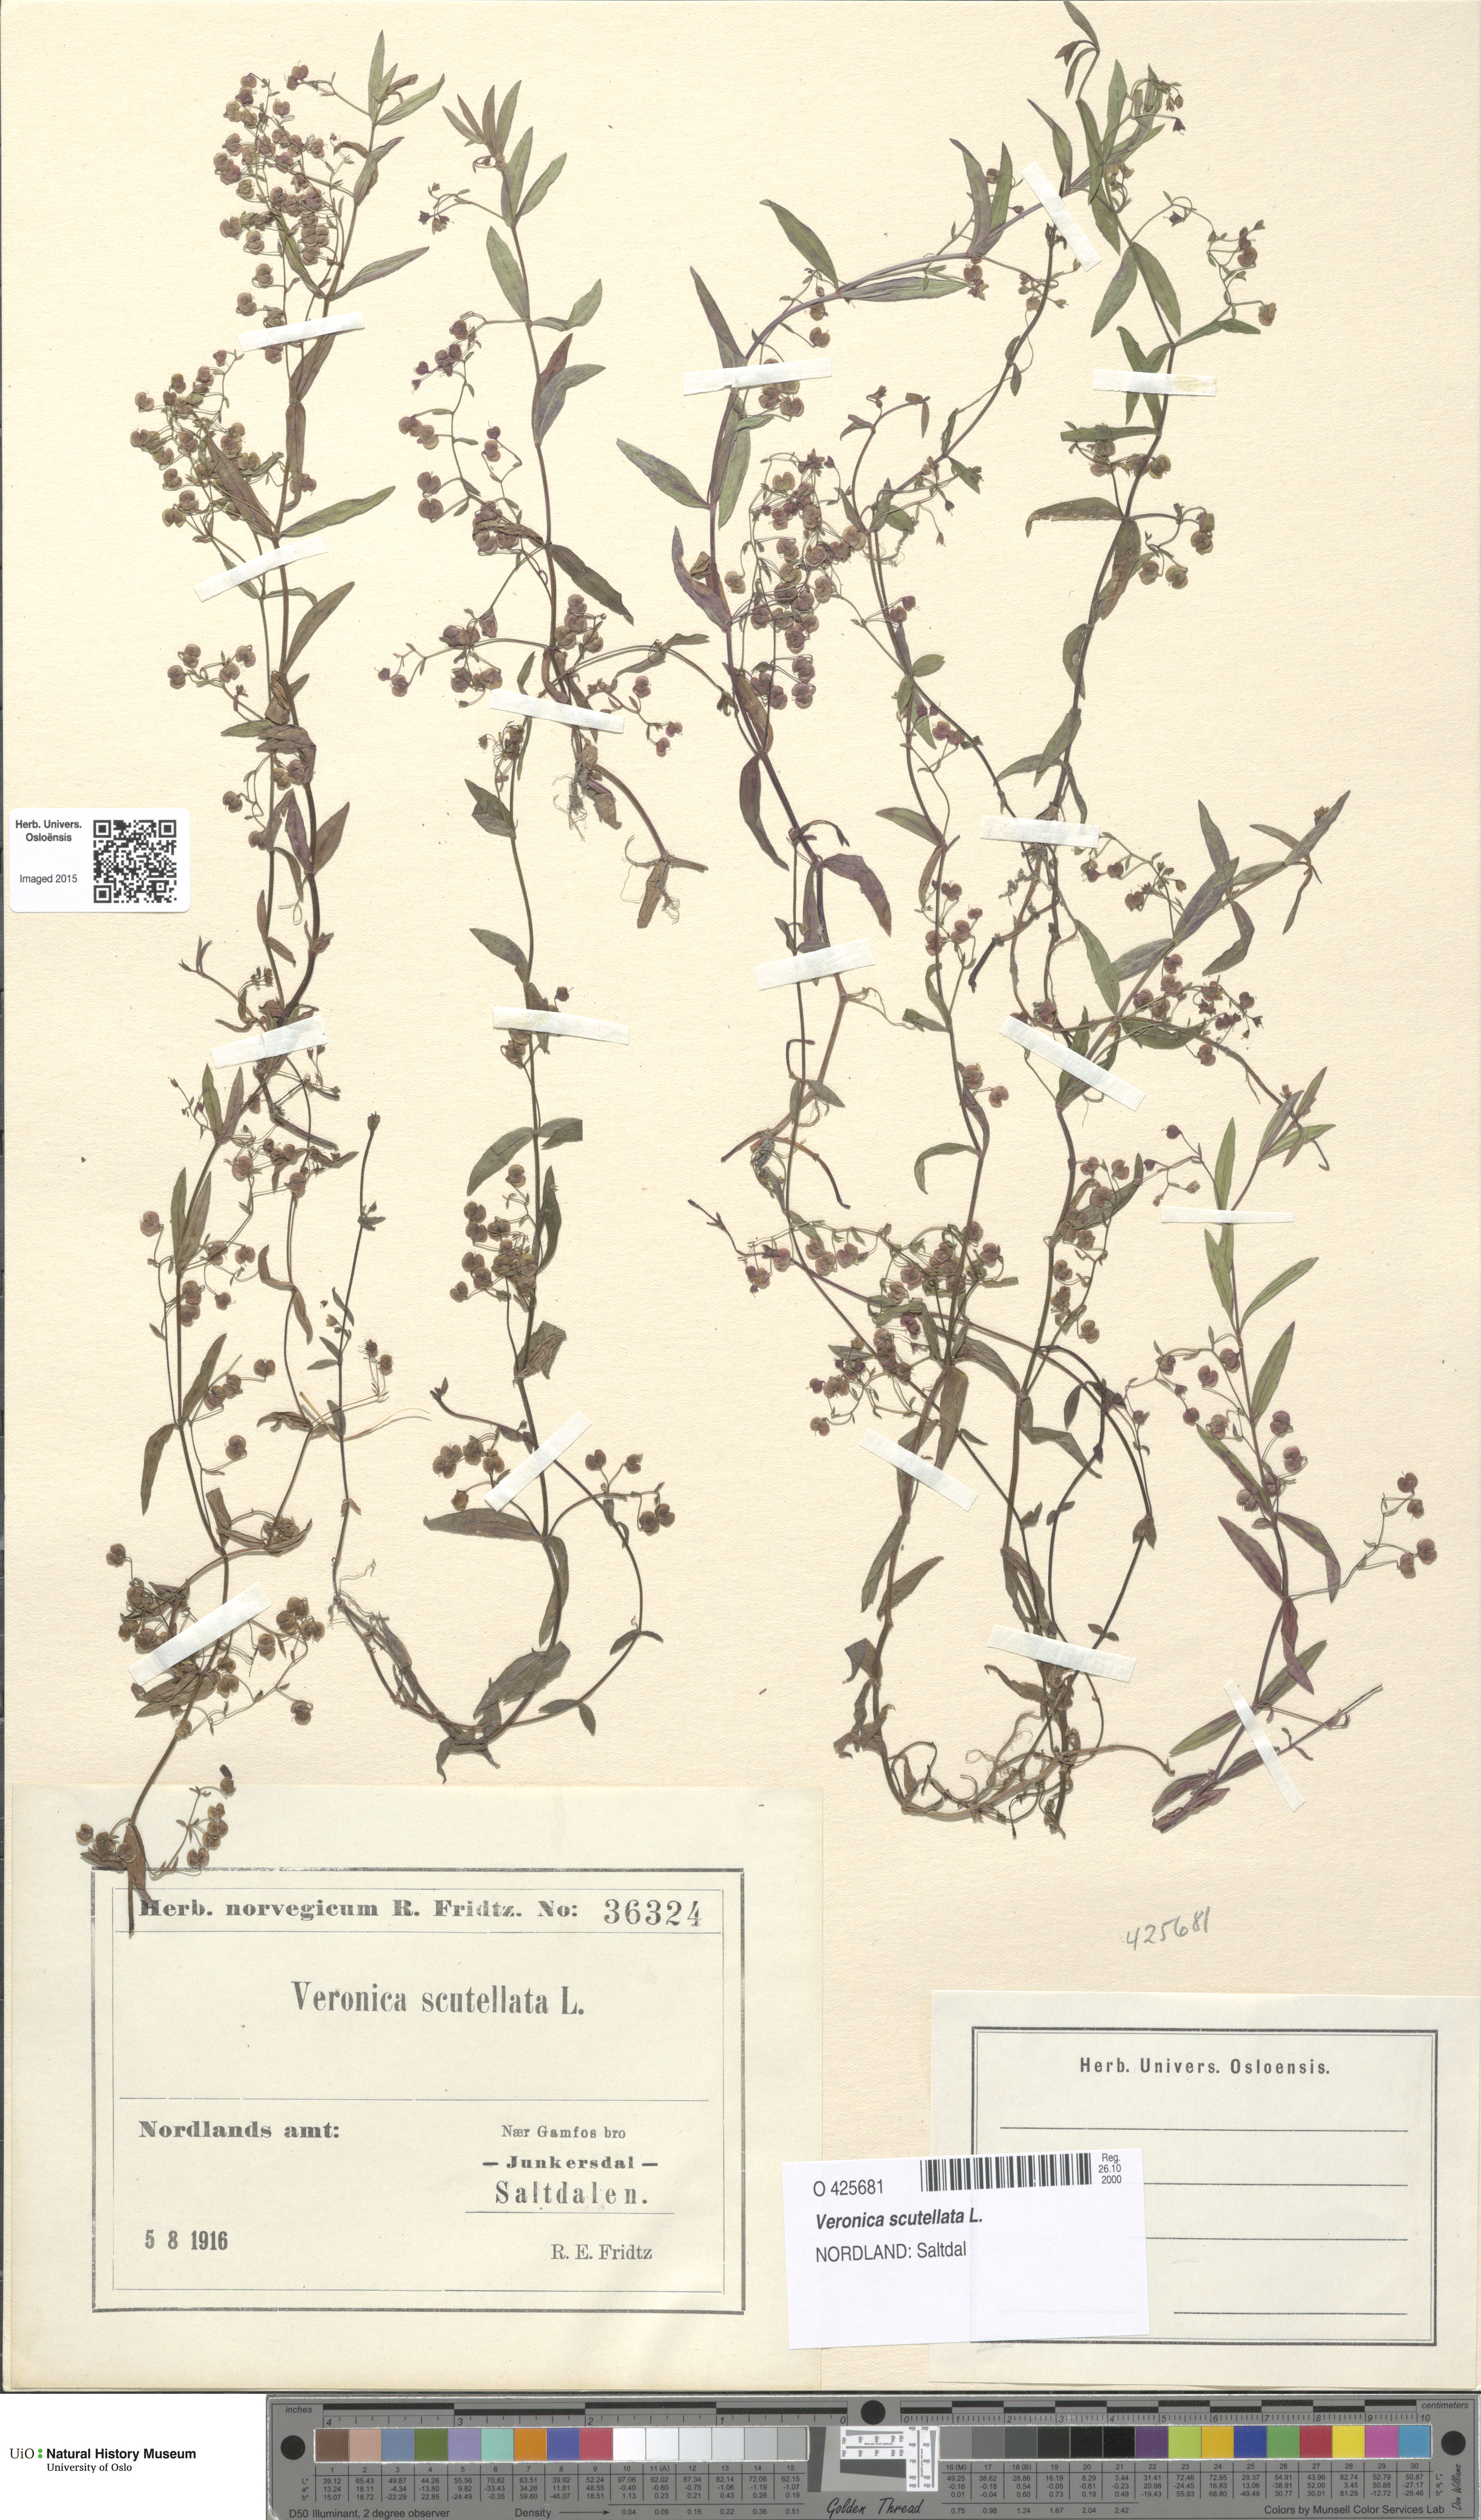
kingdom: Plantae
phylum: Tracheophyta
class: Magnoliopsida
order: Lamiales
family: Plantaginaceae
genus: Veronica
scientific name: Veronica scutellata
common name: Marsh speedwell
